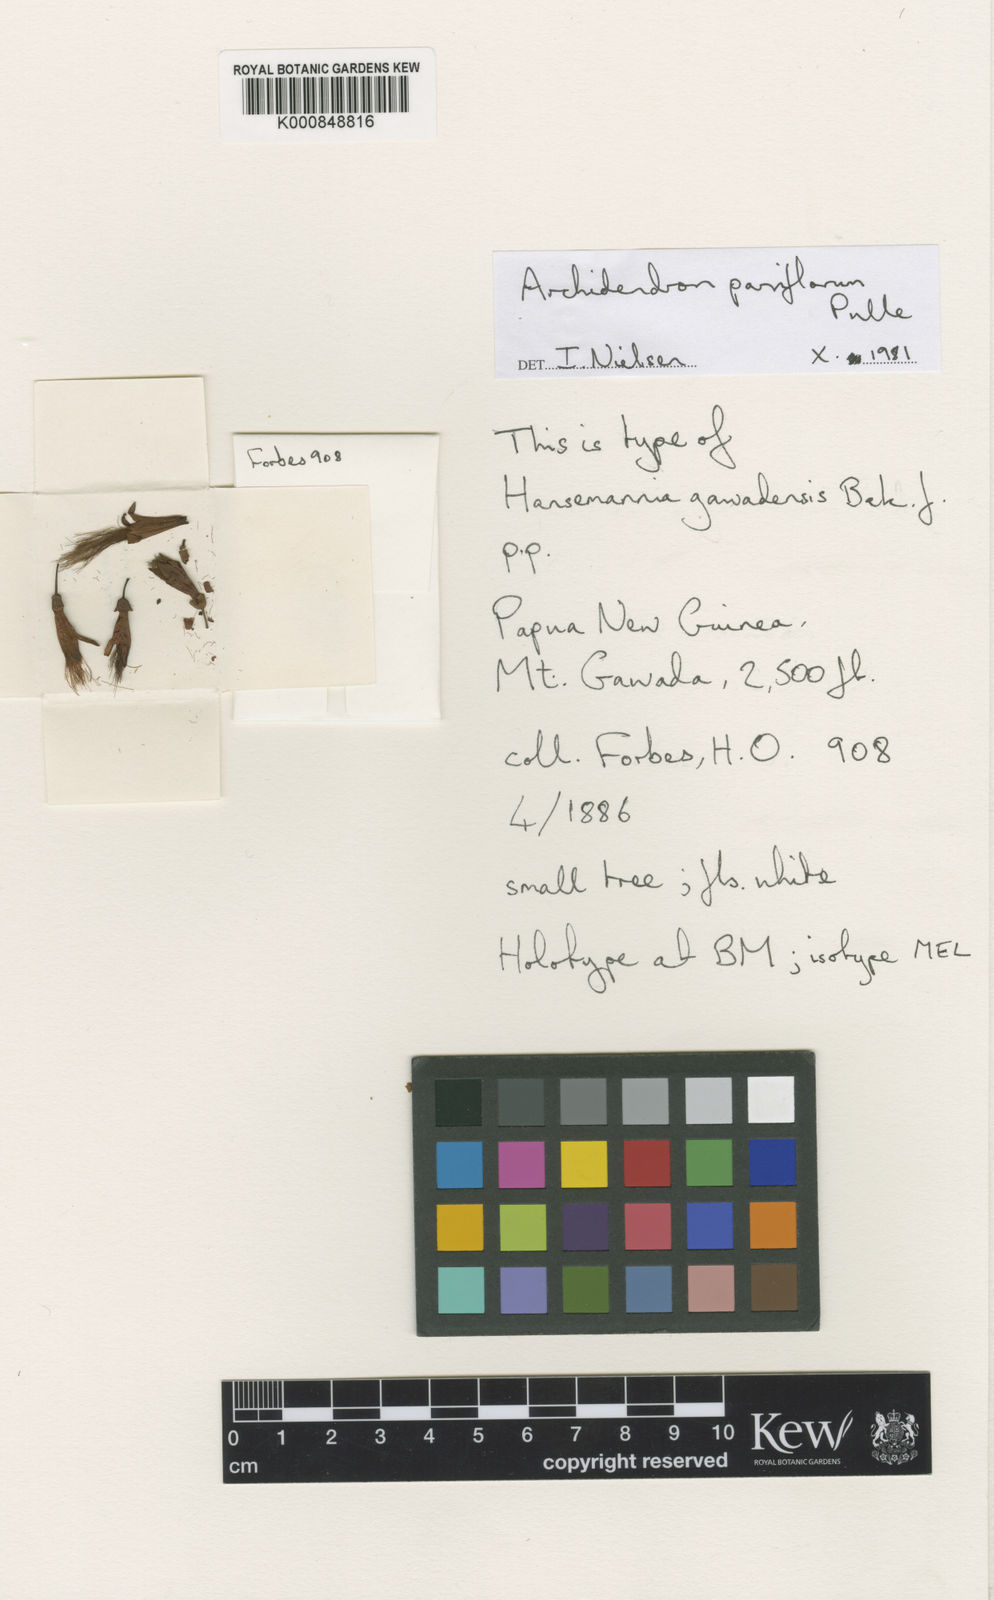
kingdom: Plantae
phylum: Tracheophyta
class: Magnoliopsida
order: Fabales
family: Fabaceae
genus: Archidendron
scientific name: Archidendron
